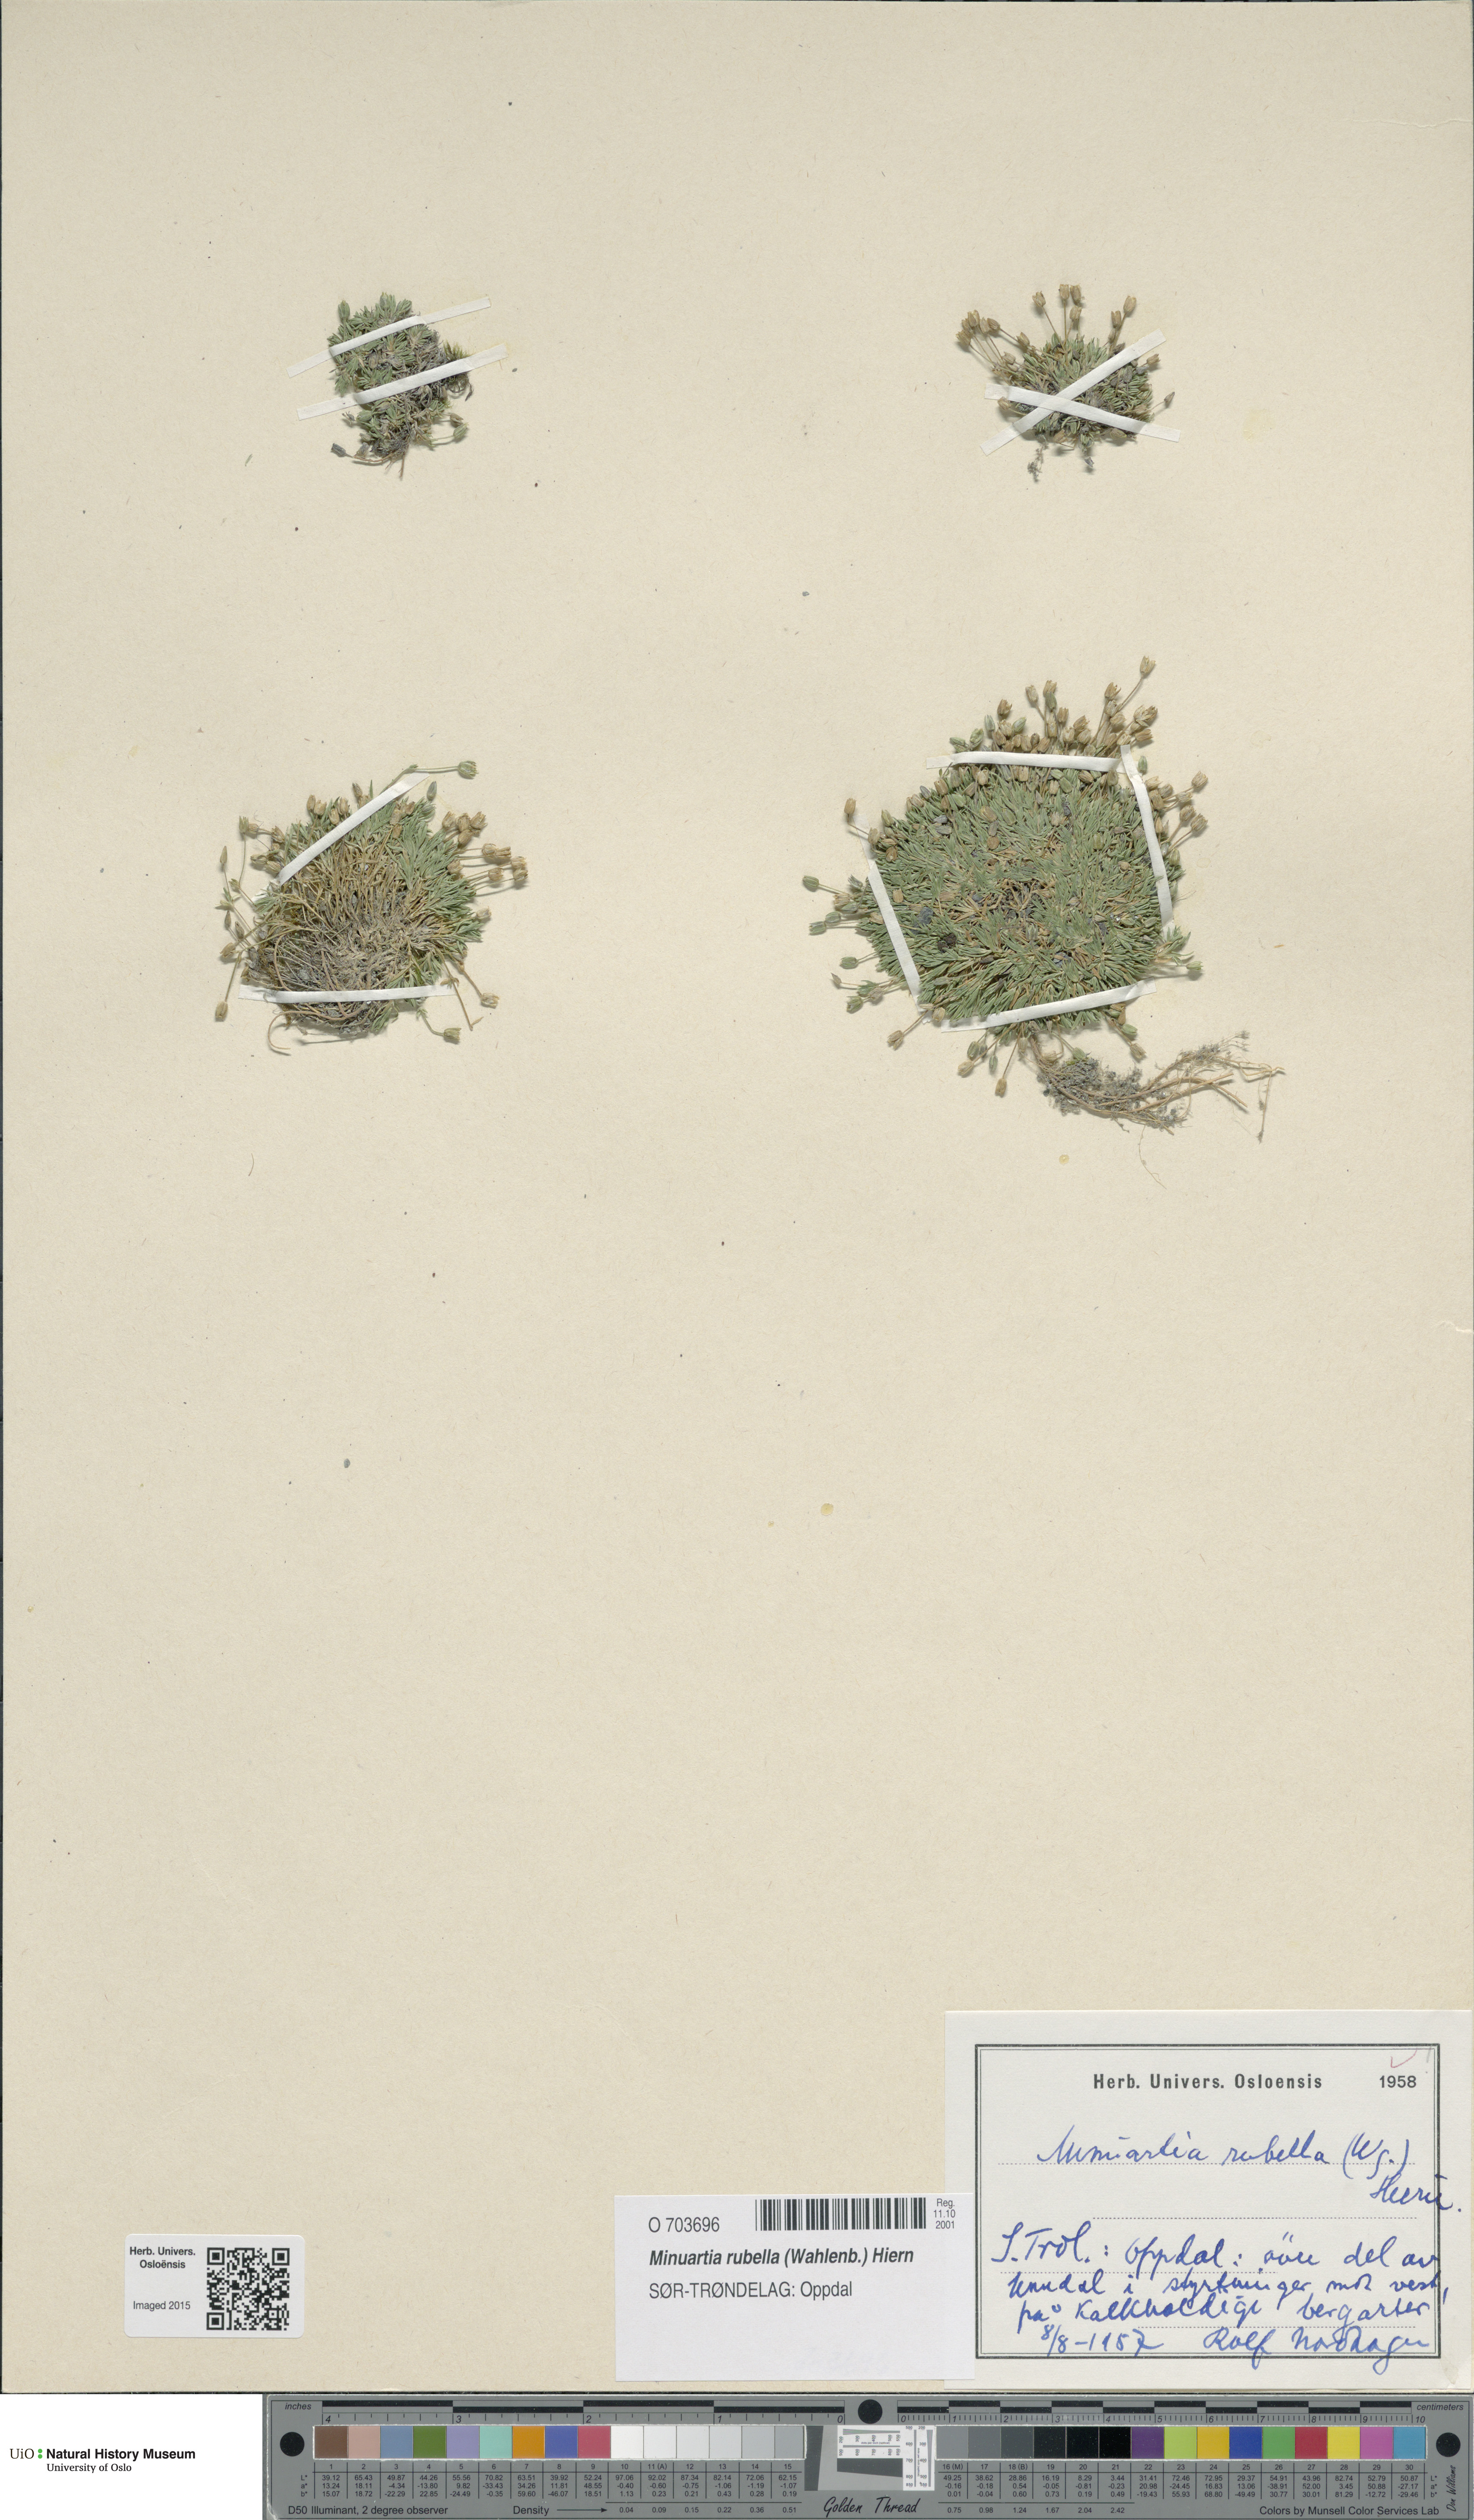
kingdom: Plantae
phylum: Tracheophyta
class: Magnoliopsida
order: Caryophyllales
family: Caryophyllaceae
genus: Sabulina
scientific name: Sabulina rubella
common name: Beautiful sandwort
